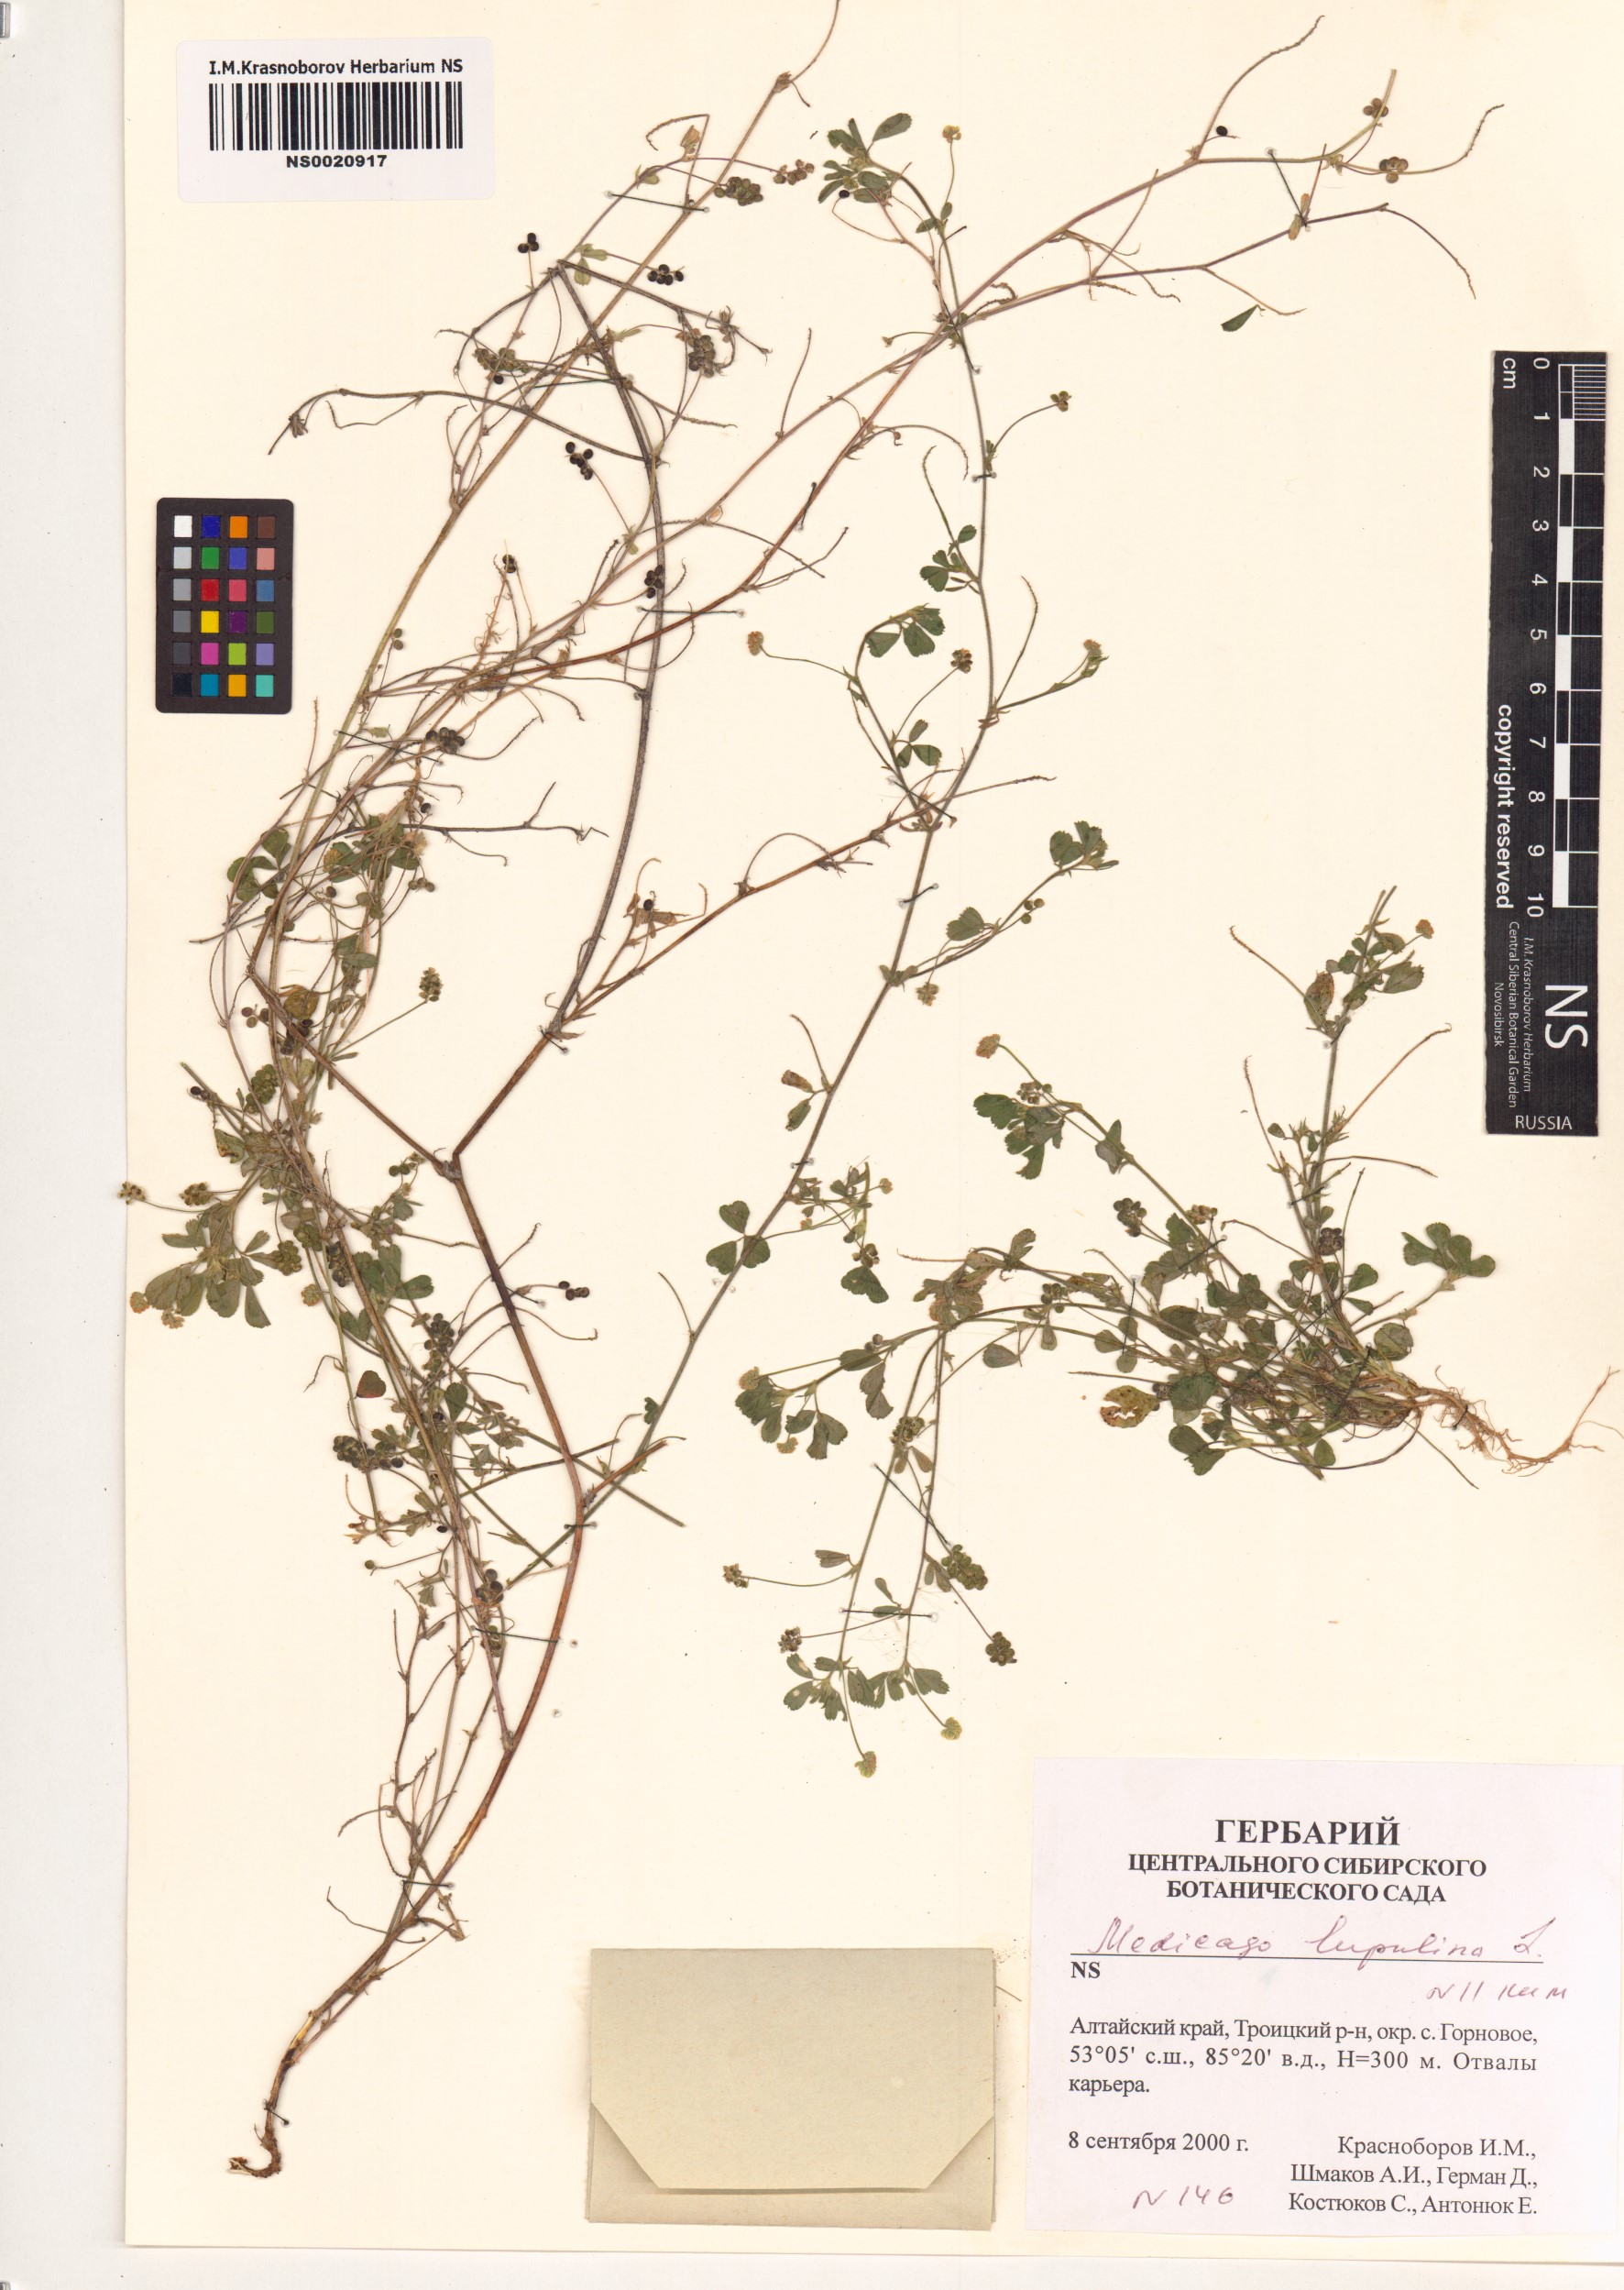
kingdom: Plantae
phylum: Tracheophyta
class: Magnoliopsida
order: Fabales
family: Fabaceae
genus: Medicago
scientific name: Medicago lupulina
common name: Black medick
